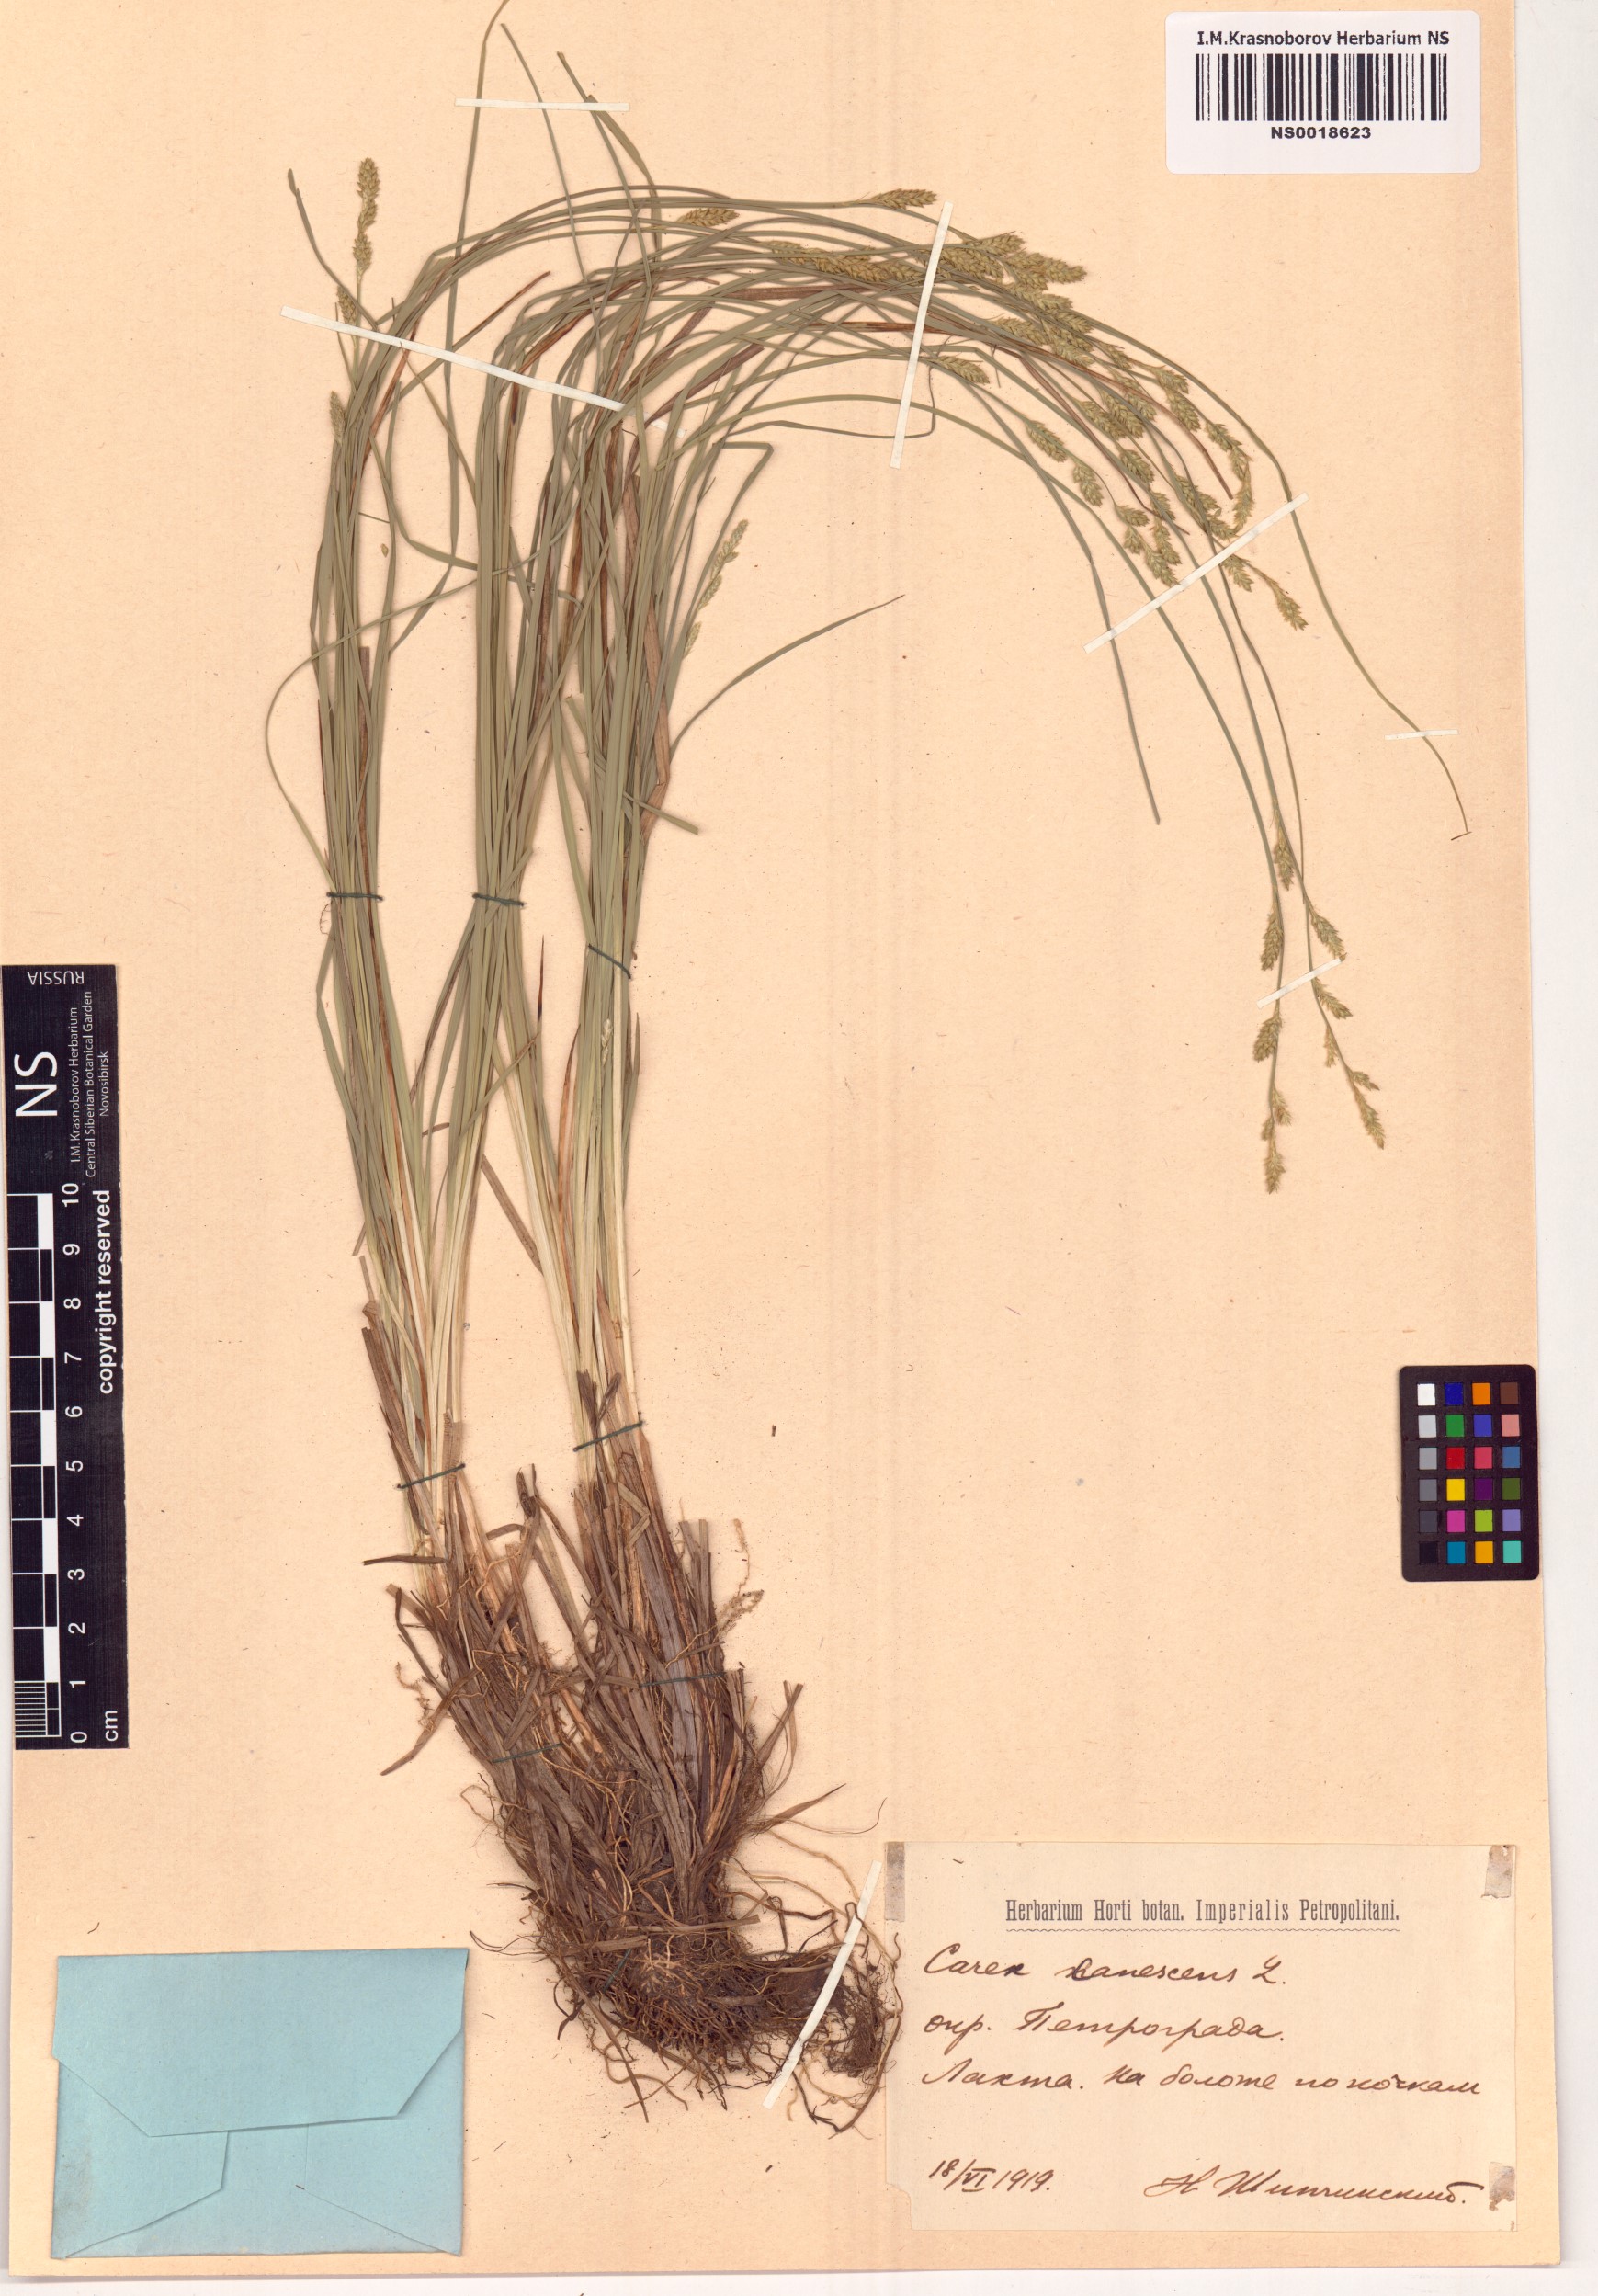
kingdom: Plantae
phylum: Tracheophyta
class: Liliopsida
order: Poales
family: Cyperaceae
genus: Carex
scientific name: Carex canescens
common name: White sedge
